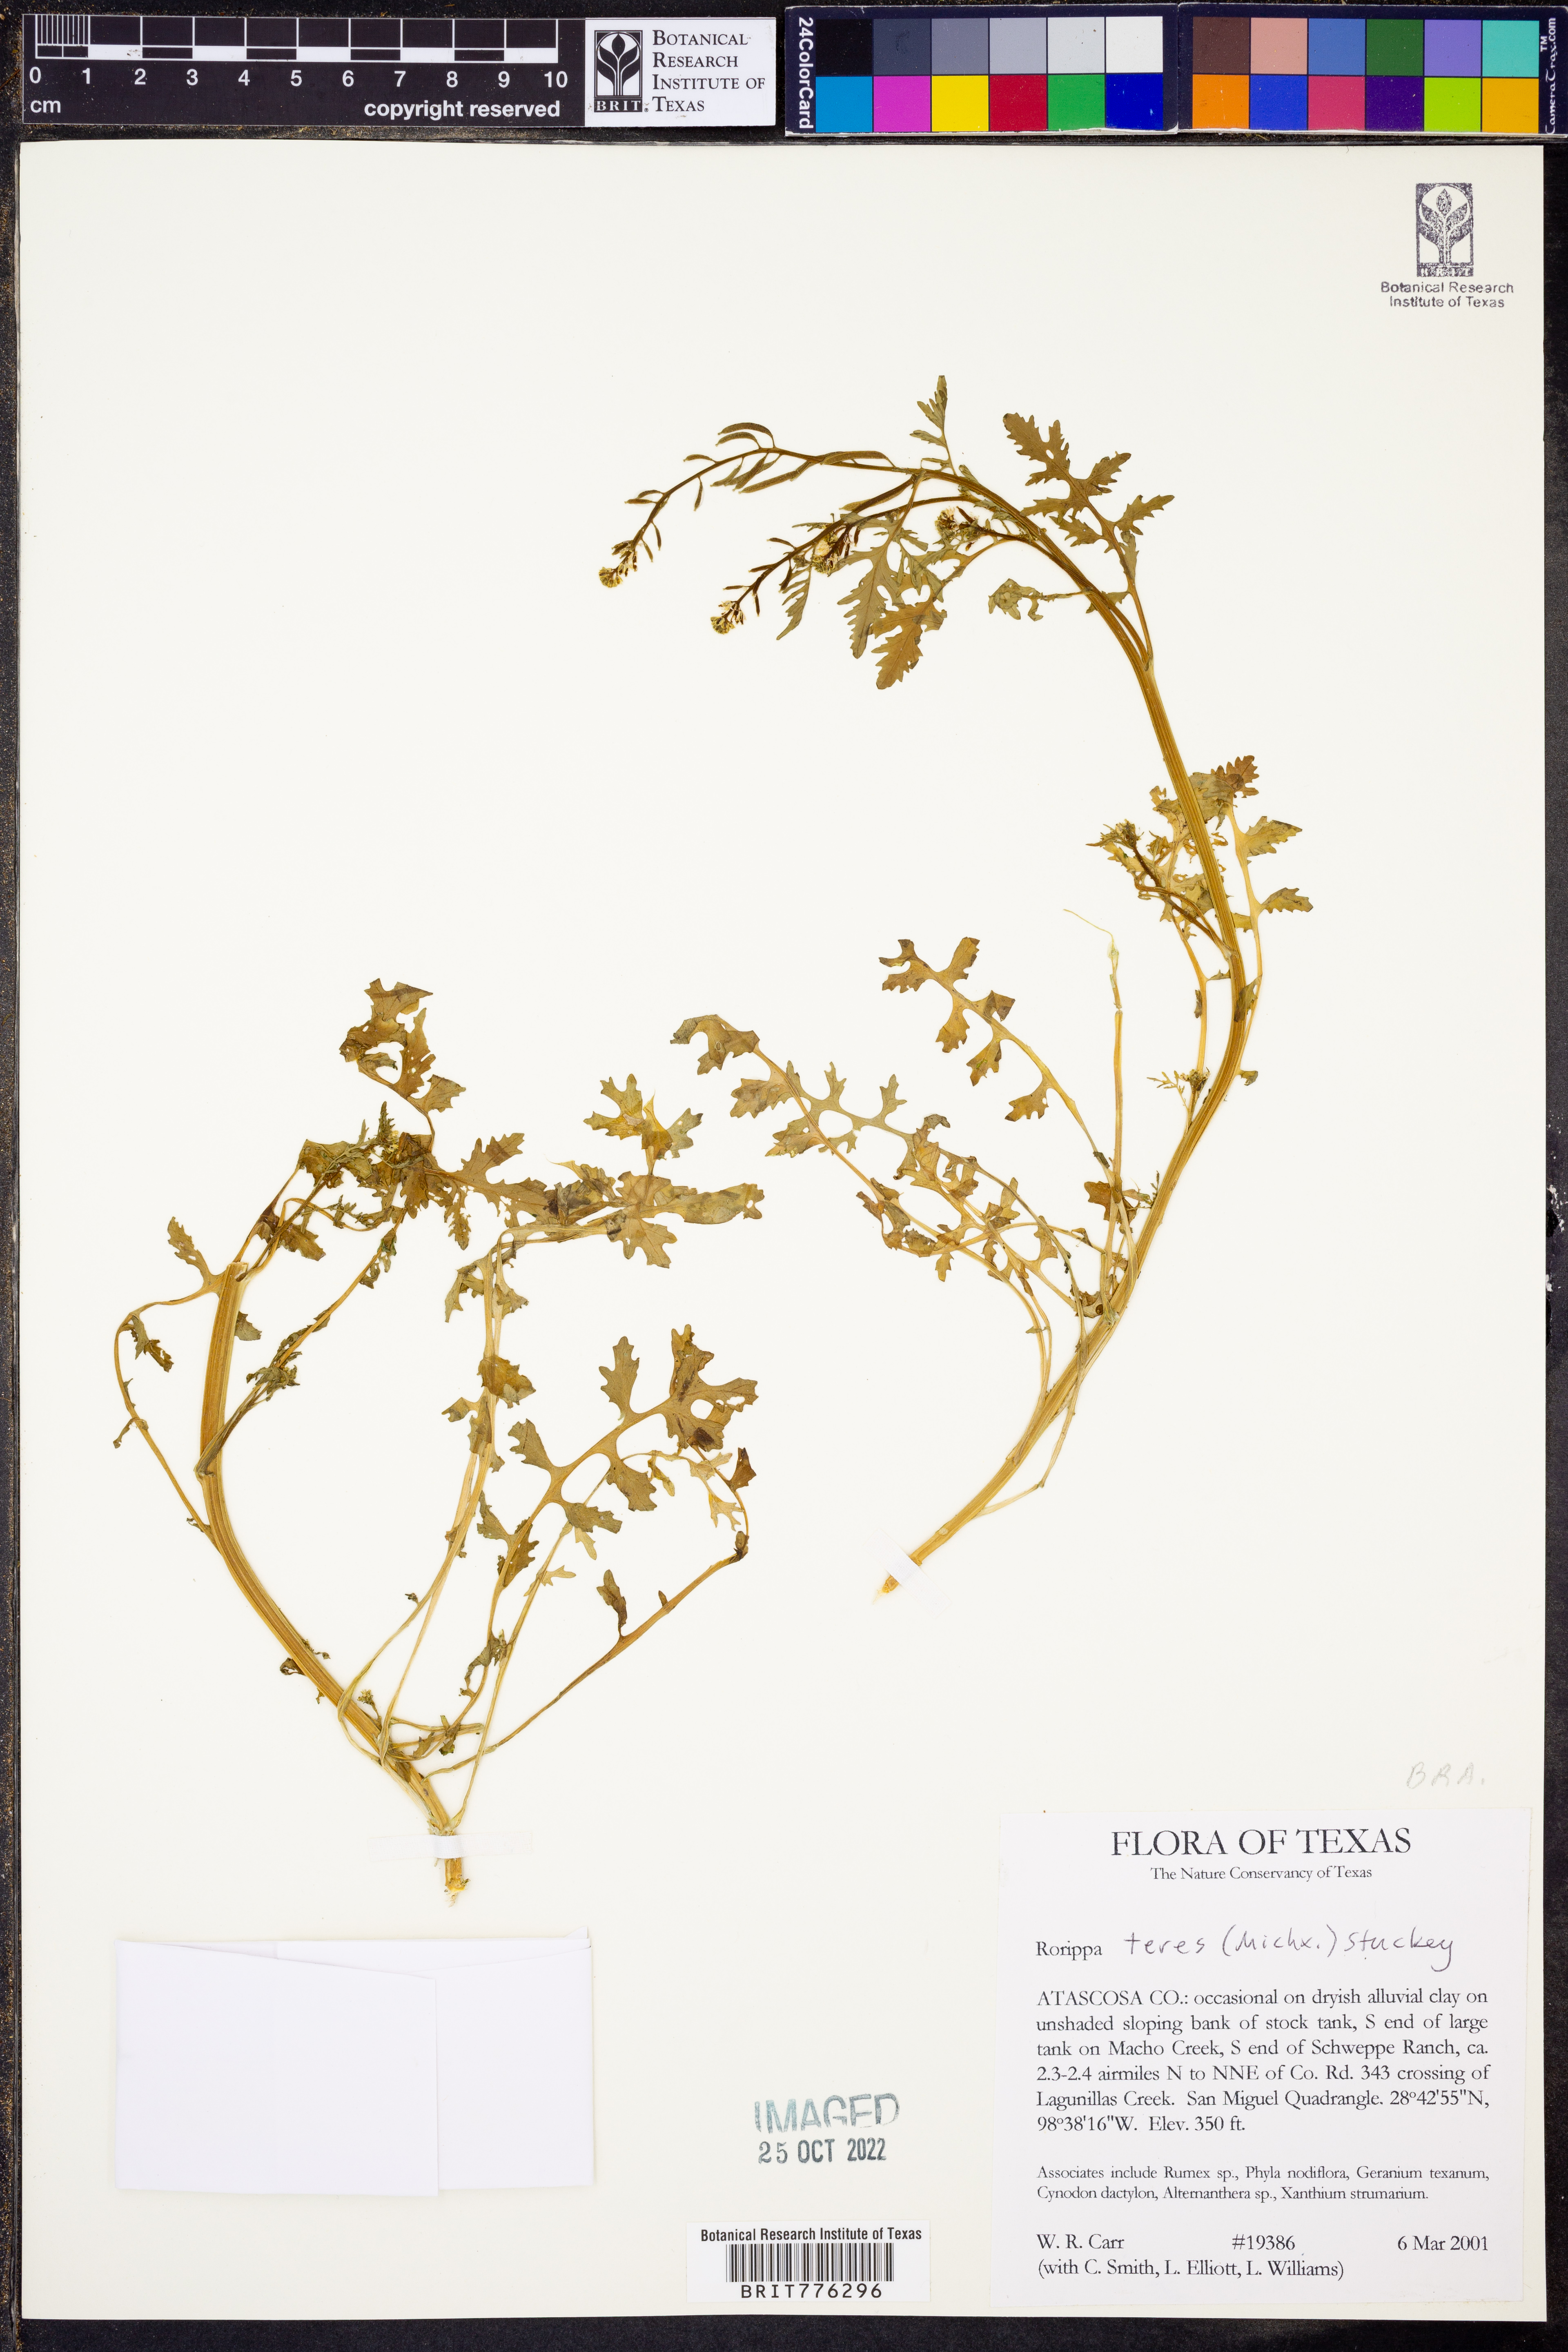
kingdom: Plantae
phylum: Tracheophyta
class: Magnoliopsida
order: Brassicales
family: Brassicaceae
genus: Rorippa
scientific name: Rorippa teres
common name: Southern marsh yellowcress
